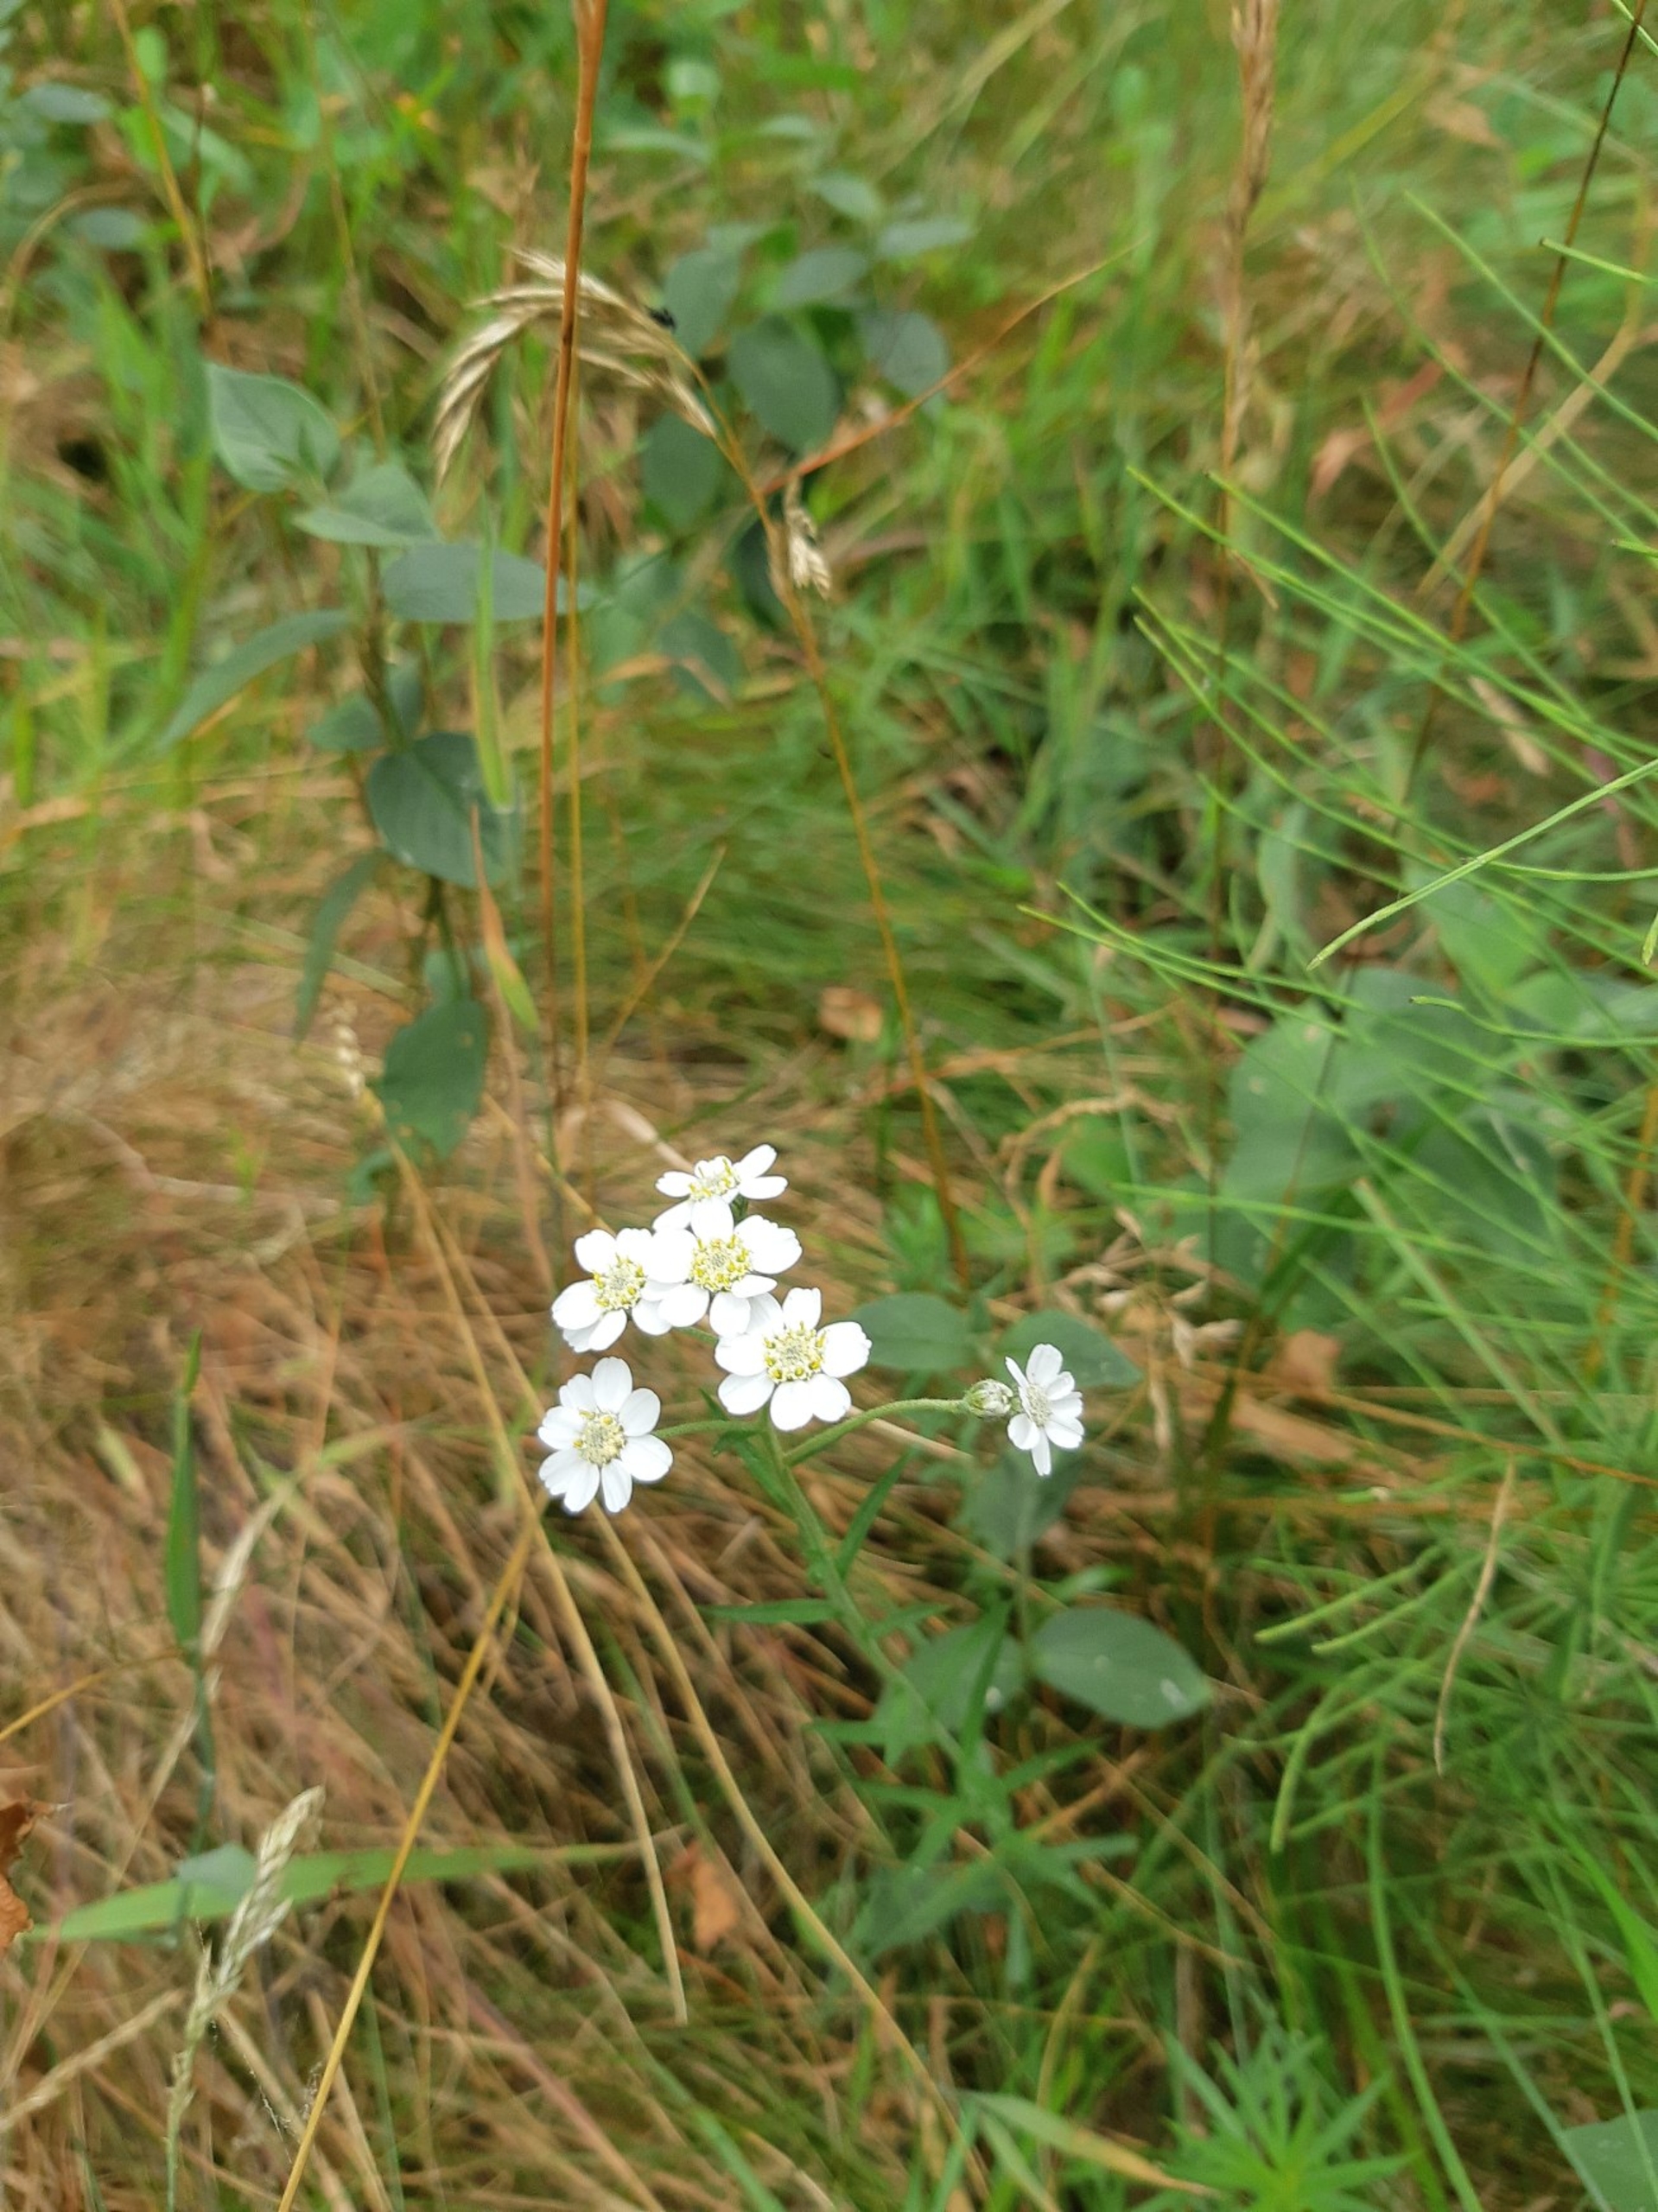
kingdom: Plantae
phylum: Tracheophyta
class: Magnoliopsida
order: Asterales
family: Asteraceae
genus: Achillea
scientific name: Achillea ptarmica
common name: Nyse-røllike
